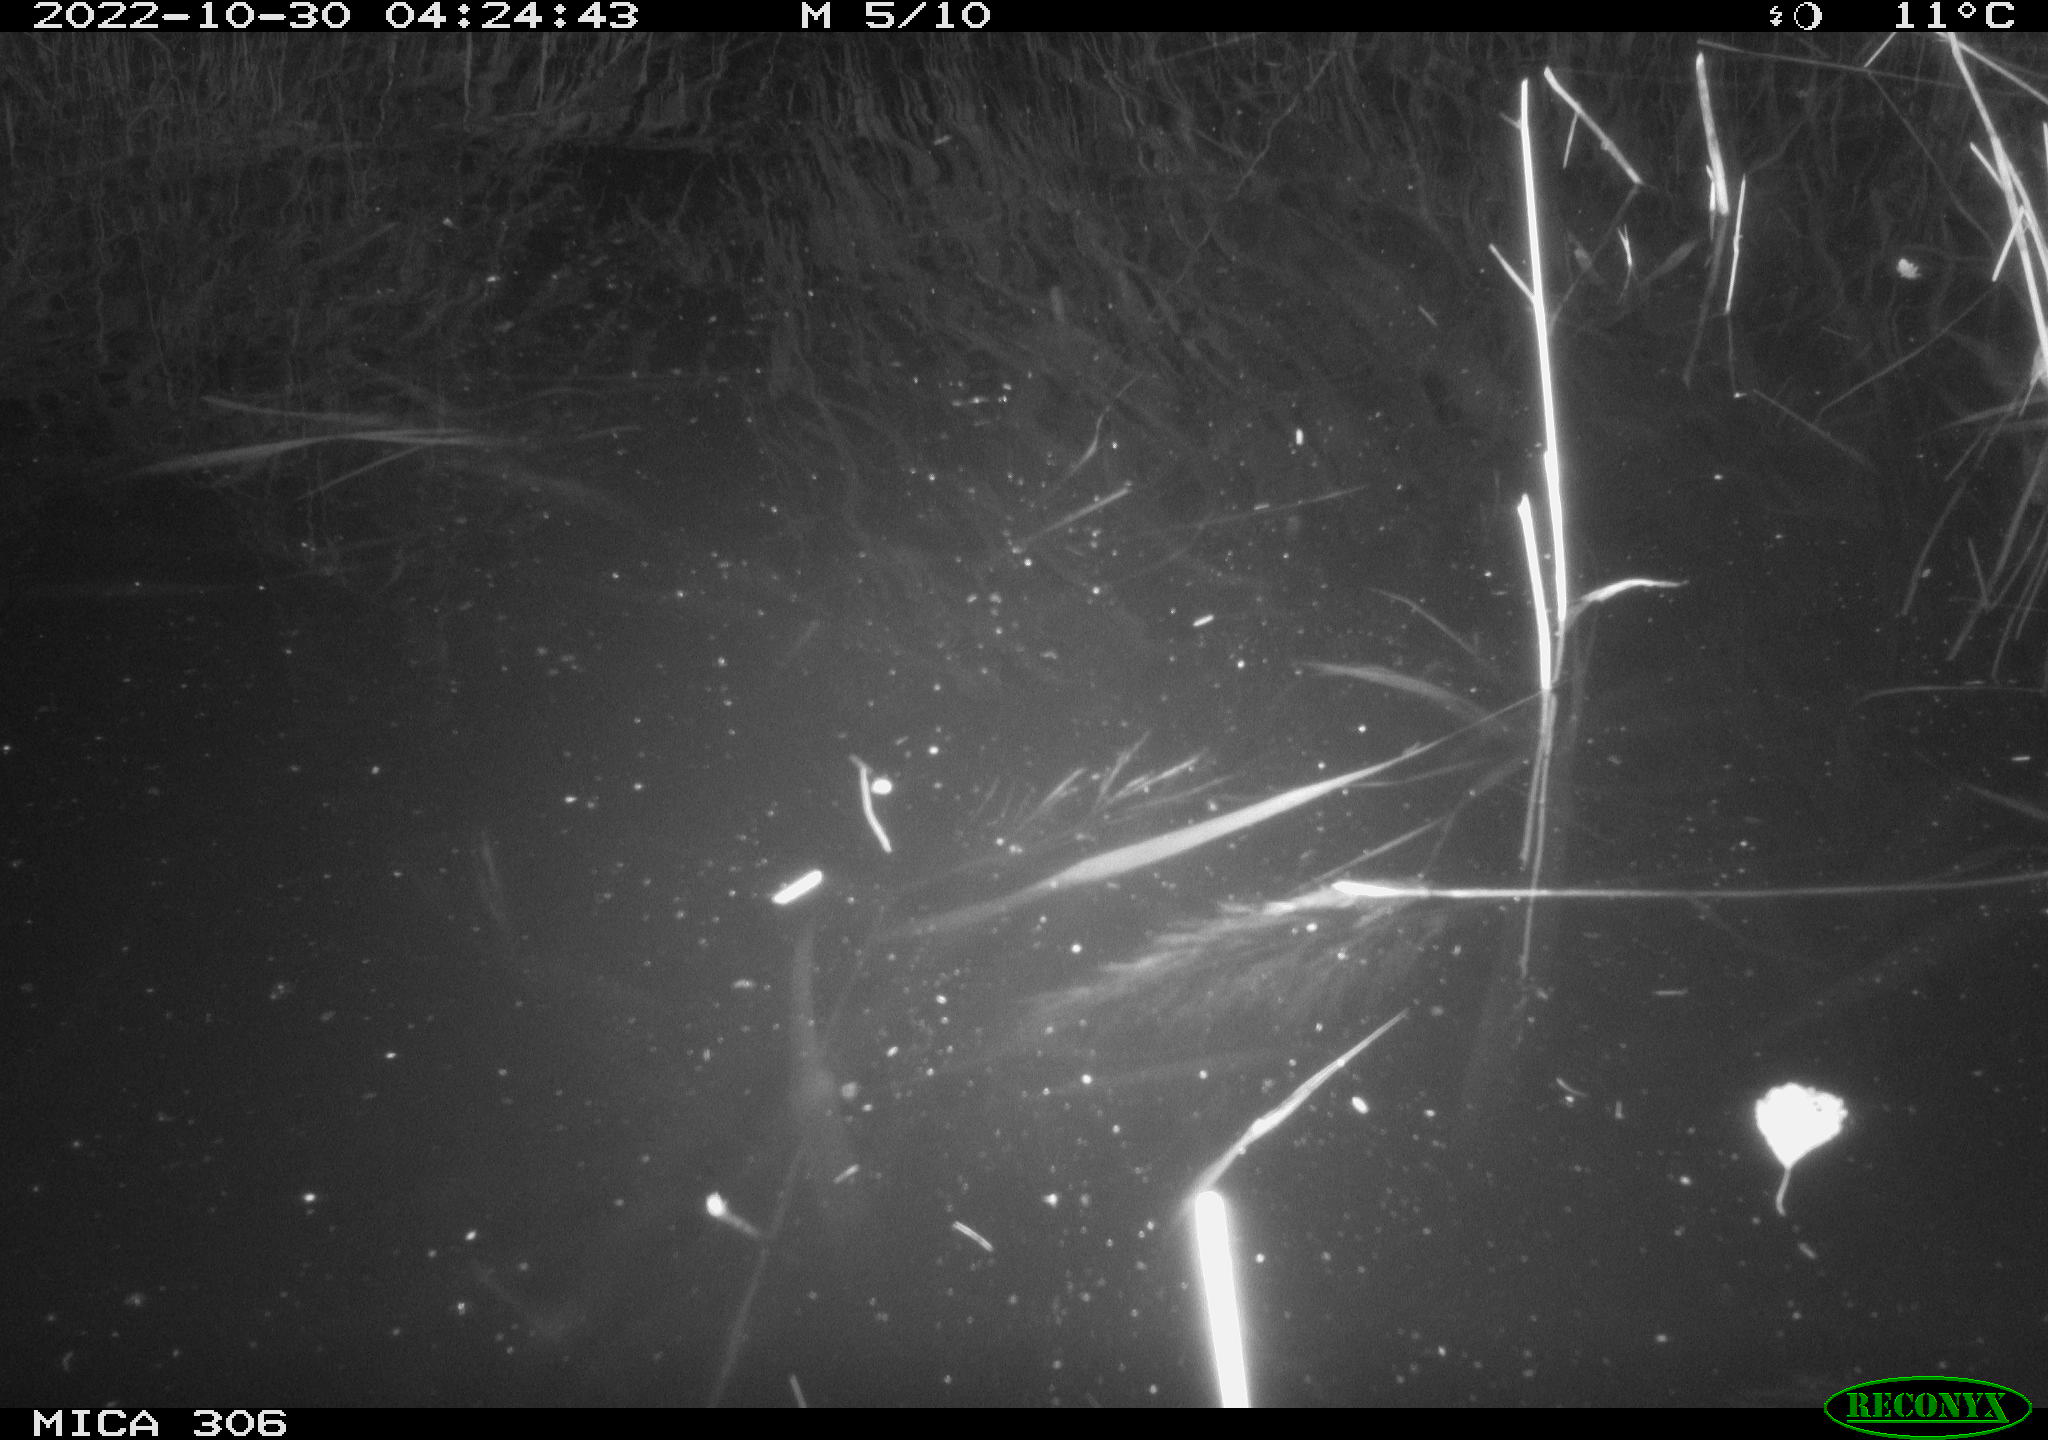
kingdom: Animalia
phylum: Chordata
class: Mammalia
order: Rodentia
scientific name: Rodentia
